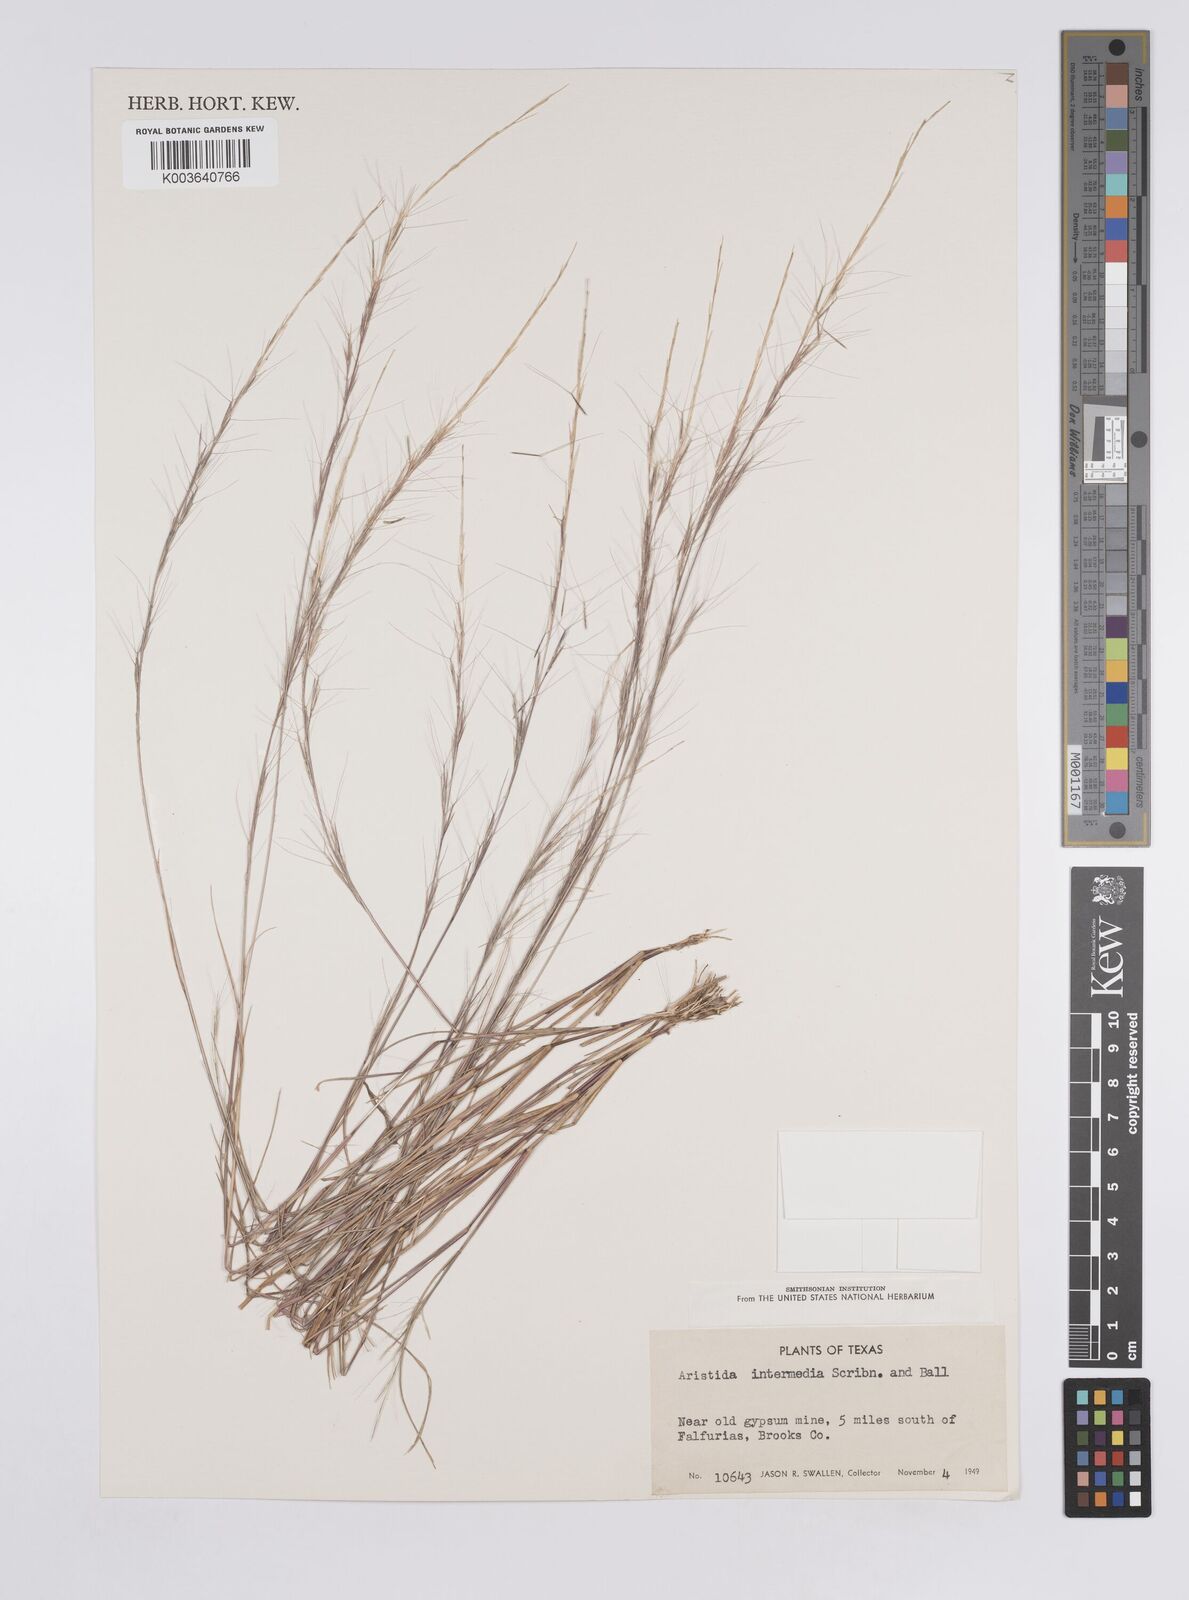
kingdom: Plantae
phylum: Tracheophyta
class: Liliopsida
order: Poales
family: Poaceae
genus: Aristida
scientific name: Aristida adscensionis
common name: Sixweeks threeawn
